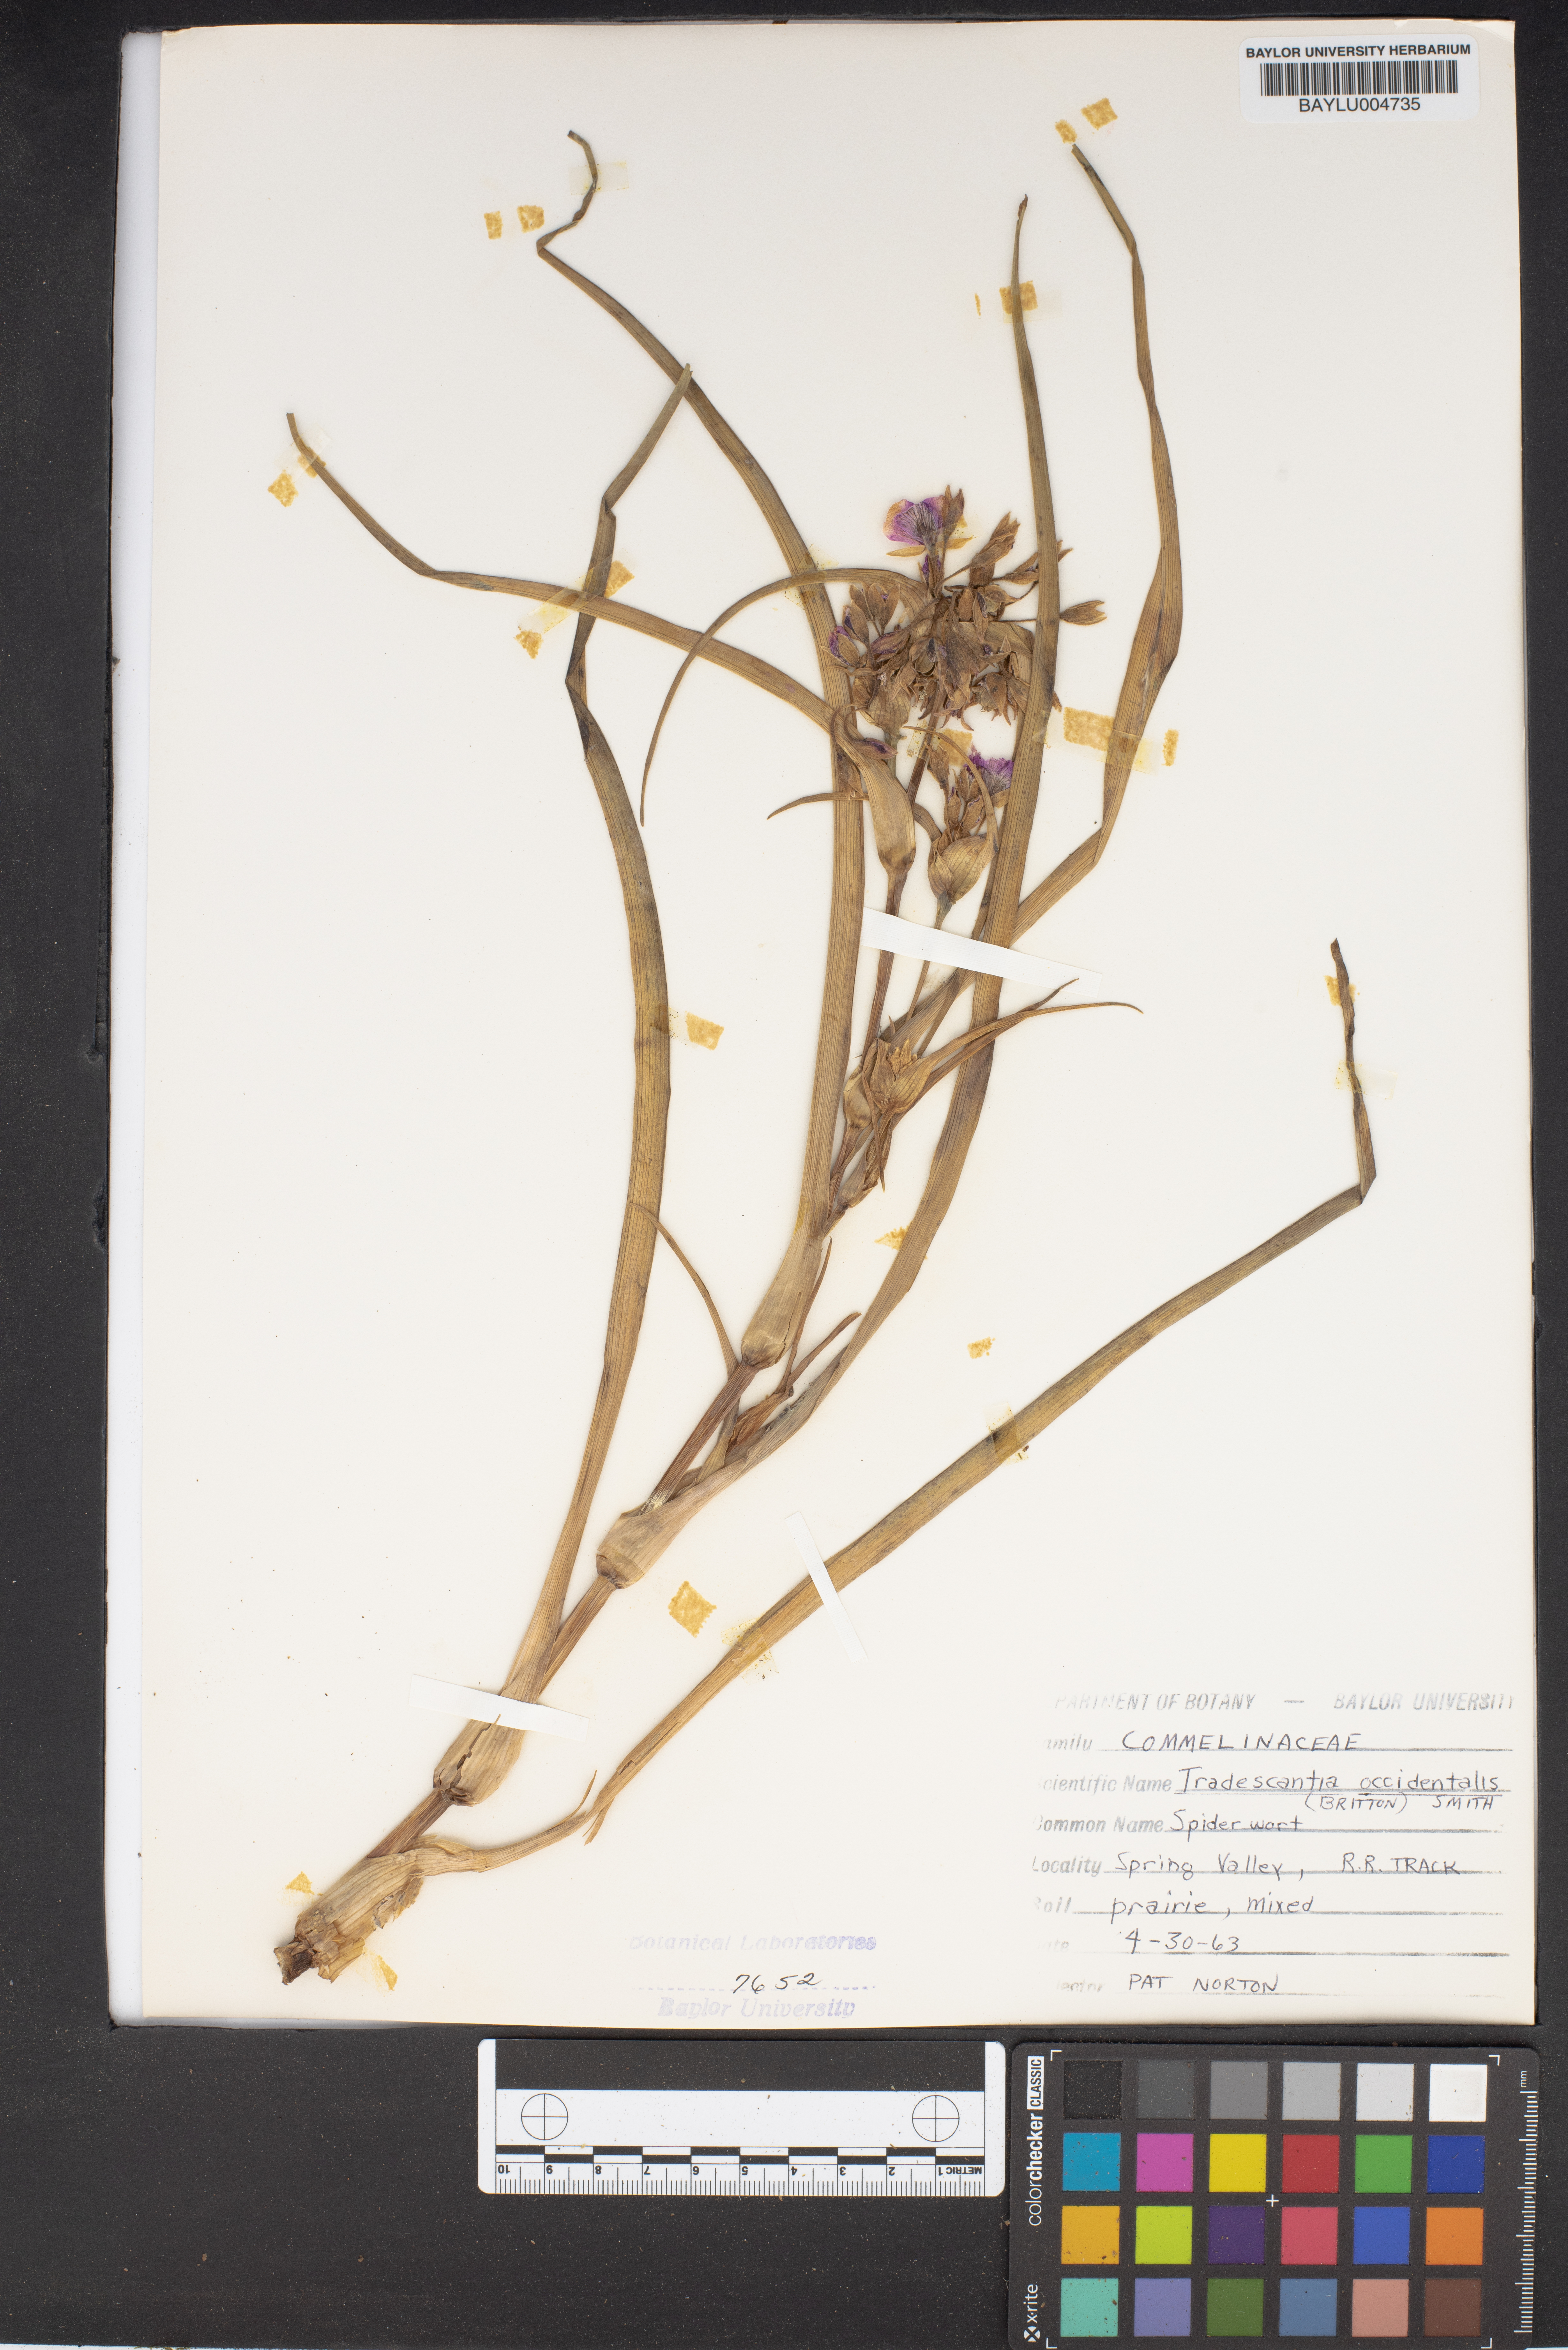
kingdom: Plantae
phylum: Tracheophyta
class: Liliopsida
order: Commelinales
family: Commelinaceae
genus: Tradescantia
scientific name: Tradescantia occidentalis
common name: Prairie spiderwort
